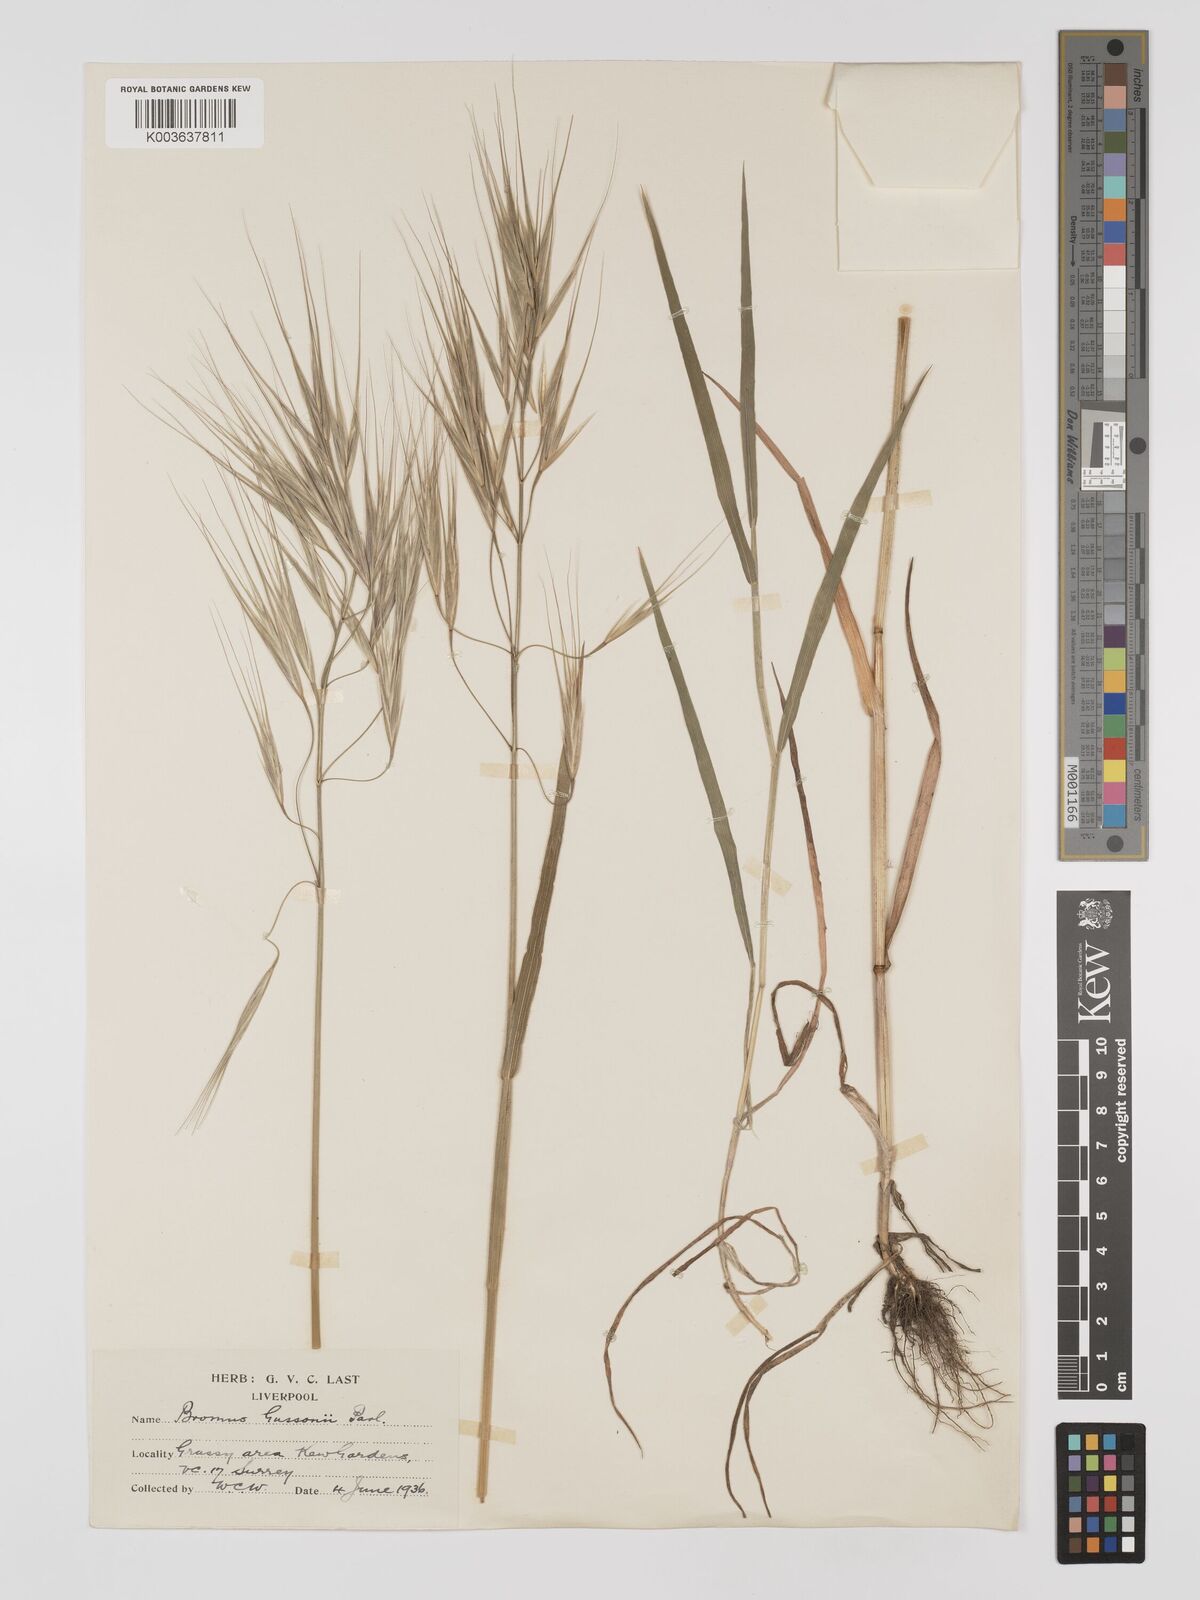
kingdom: Plantae
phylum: Tracheophyta
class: Liliopsida
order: Poales
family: Poaceae
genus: Bromus
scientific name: Bromus
